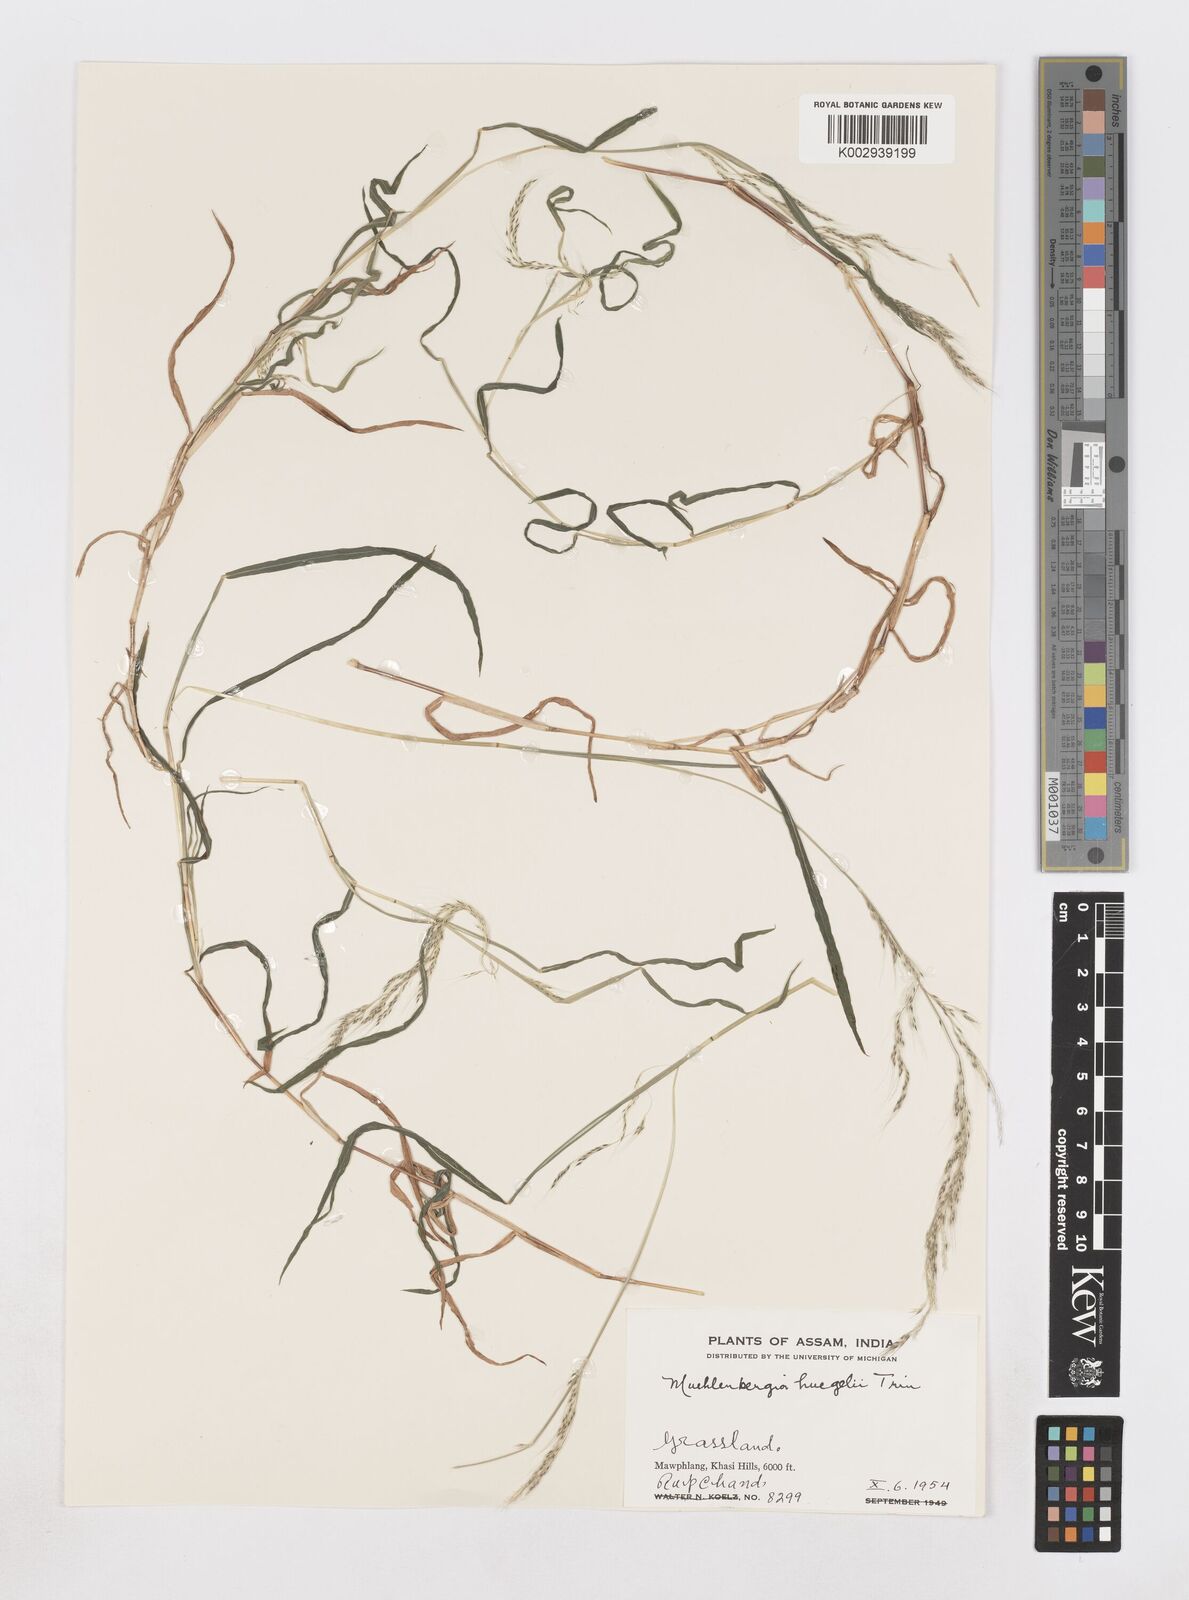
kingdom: Plantae
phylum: Tracheophyta
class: Liliopsida
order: Poales
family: Poaceae
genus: Muhlenbergia
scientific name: Muhlenbergia huegelii
